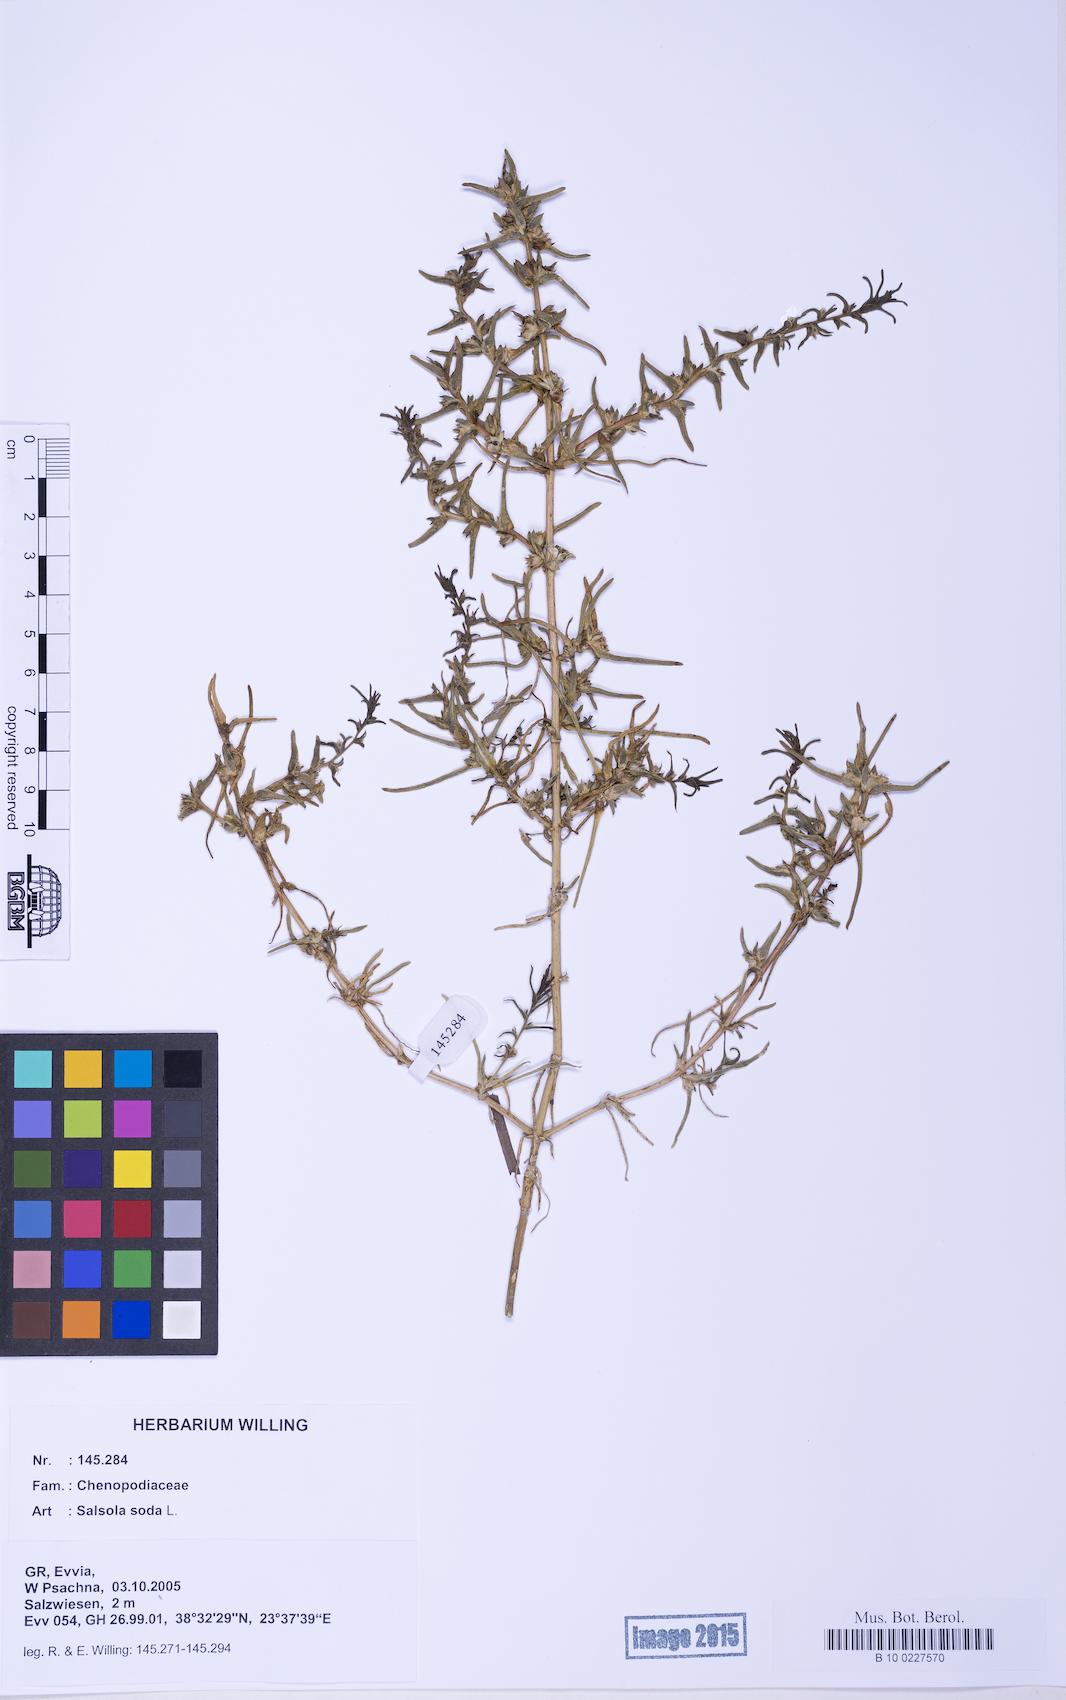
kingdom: Plantae
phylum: Tracheophyta
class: Magnoliopsida
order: Caryophyllales
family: Amaranthaceae
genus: Soda
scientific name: Soda inermis
